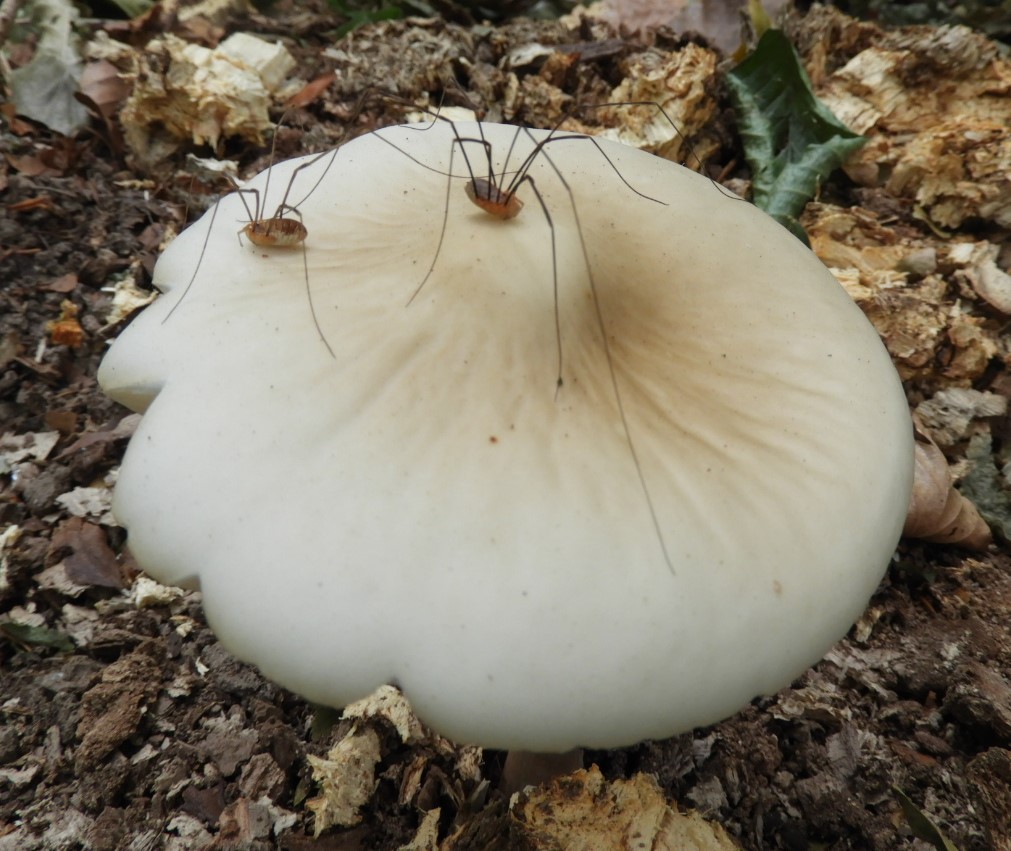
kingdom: Fungi
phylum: Basidiomycota
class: Agaricomycetes
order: Agaricales
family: Physalacriaceae
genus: Hymenopellis
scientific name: Hymenopellis radicata
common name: almindelig pælerodshat
